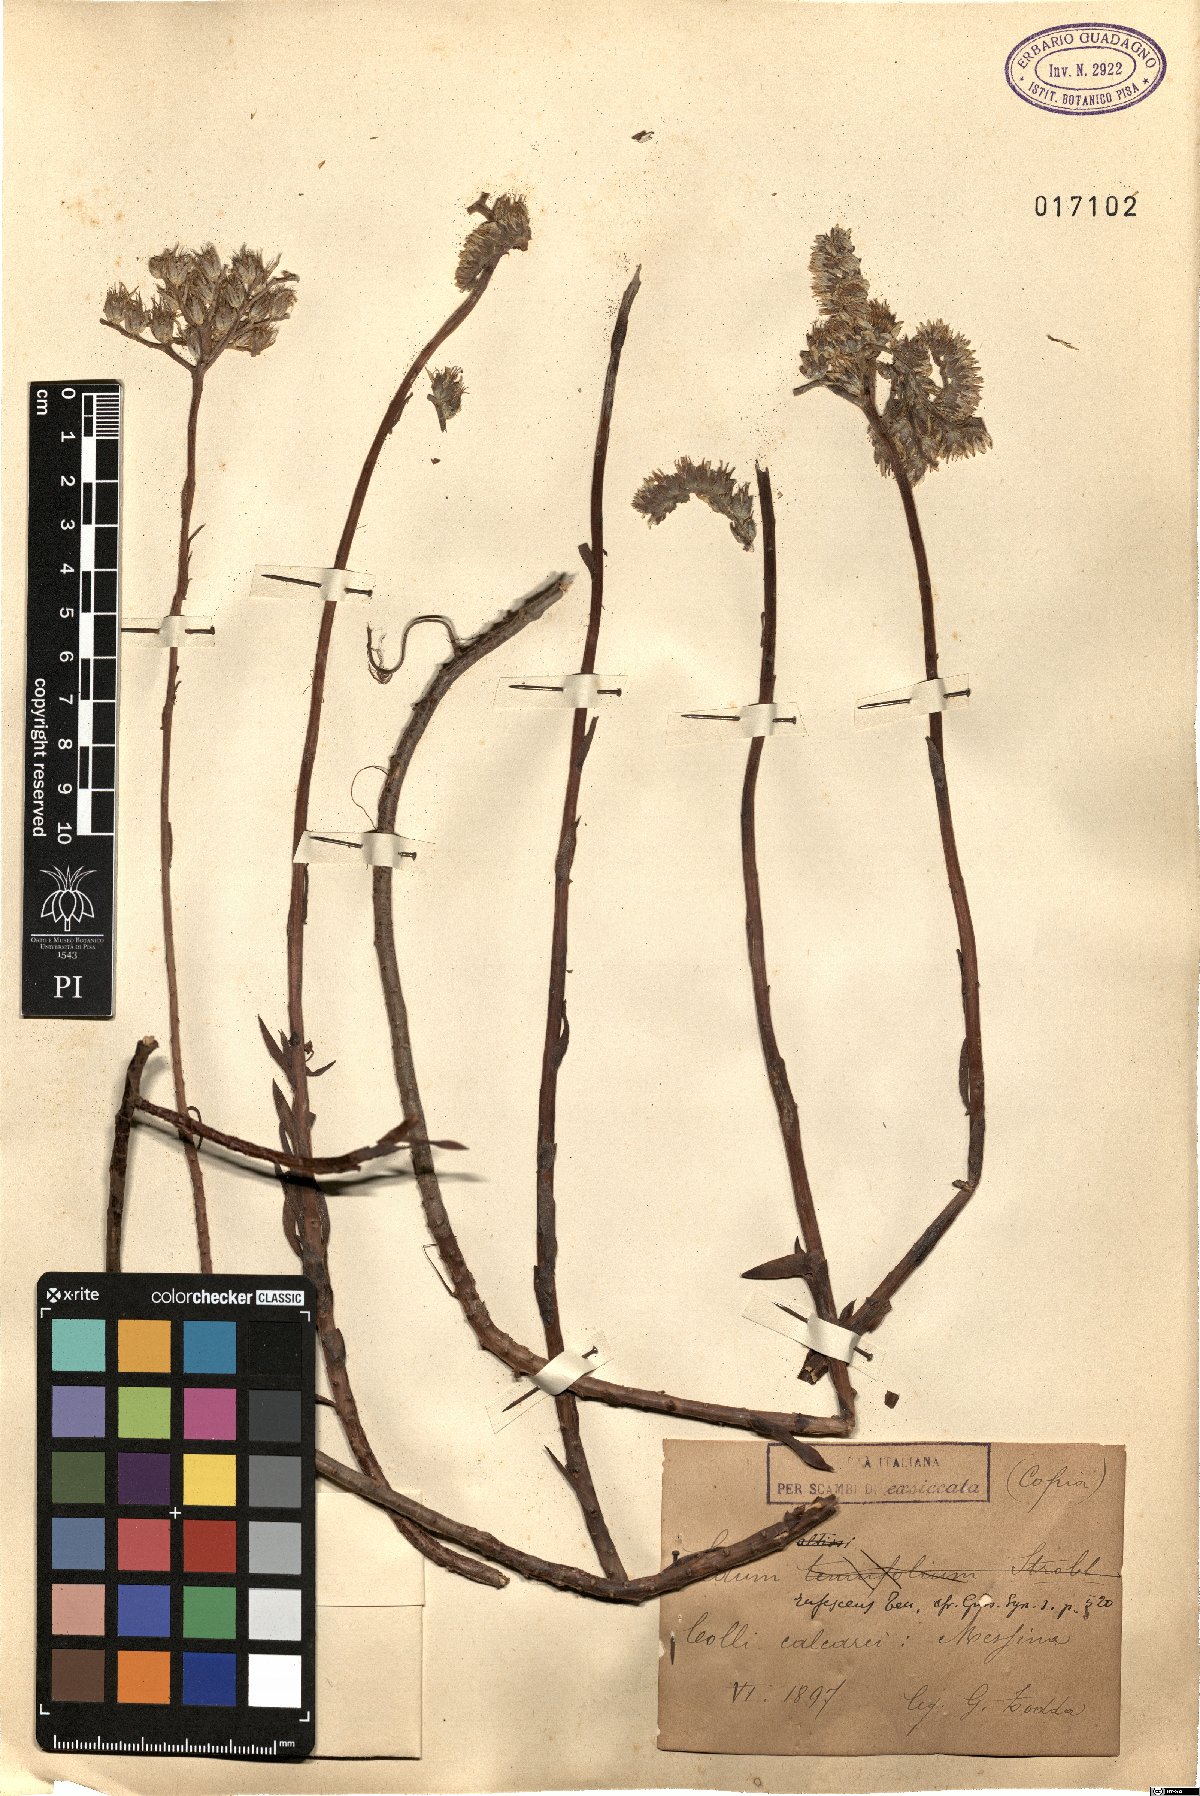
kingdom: Plantae
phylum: Tracheophyta
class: Magnoliopsida
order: Saxifragales
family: Crassulaceae
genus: Petrosedum
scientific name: Petrosedum sediforme
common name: Pale stonecrop
